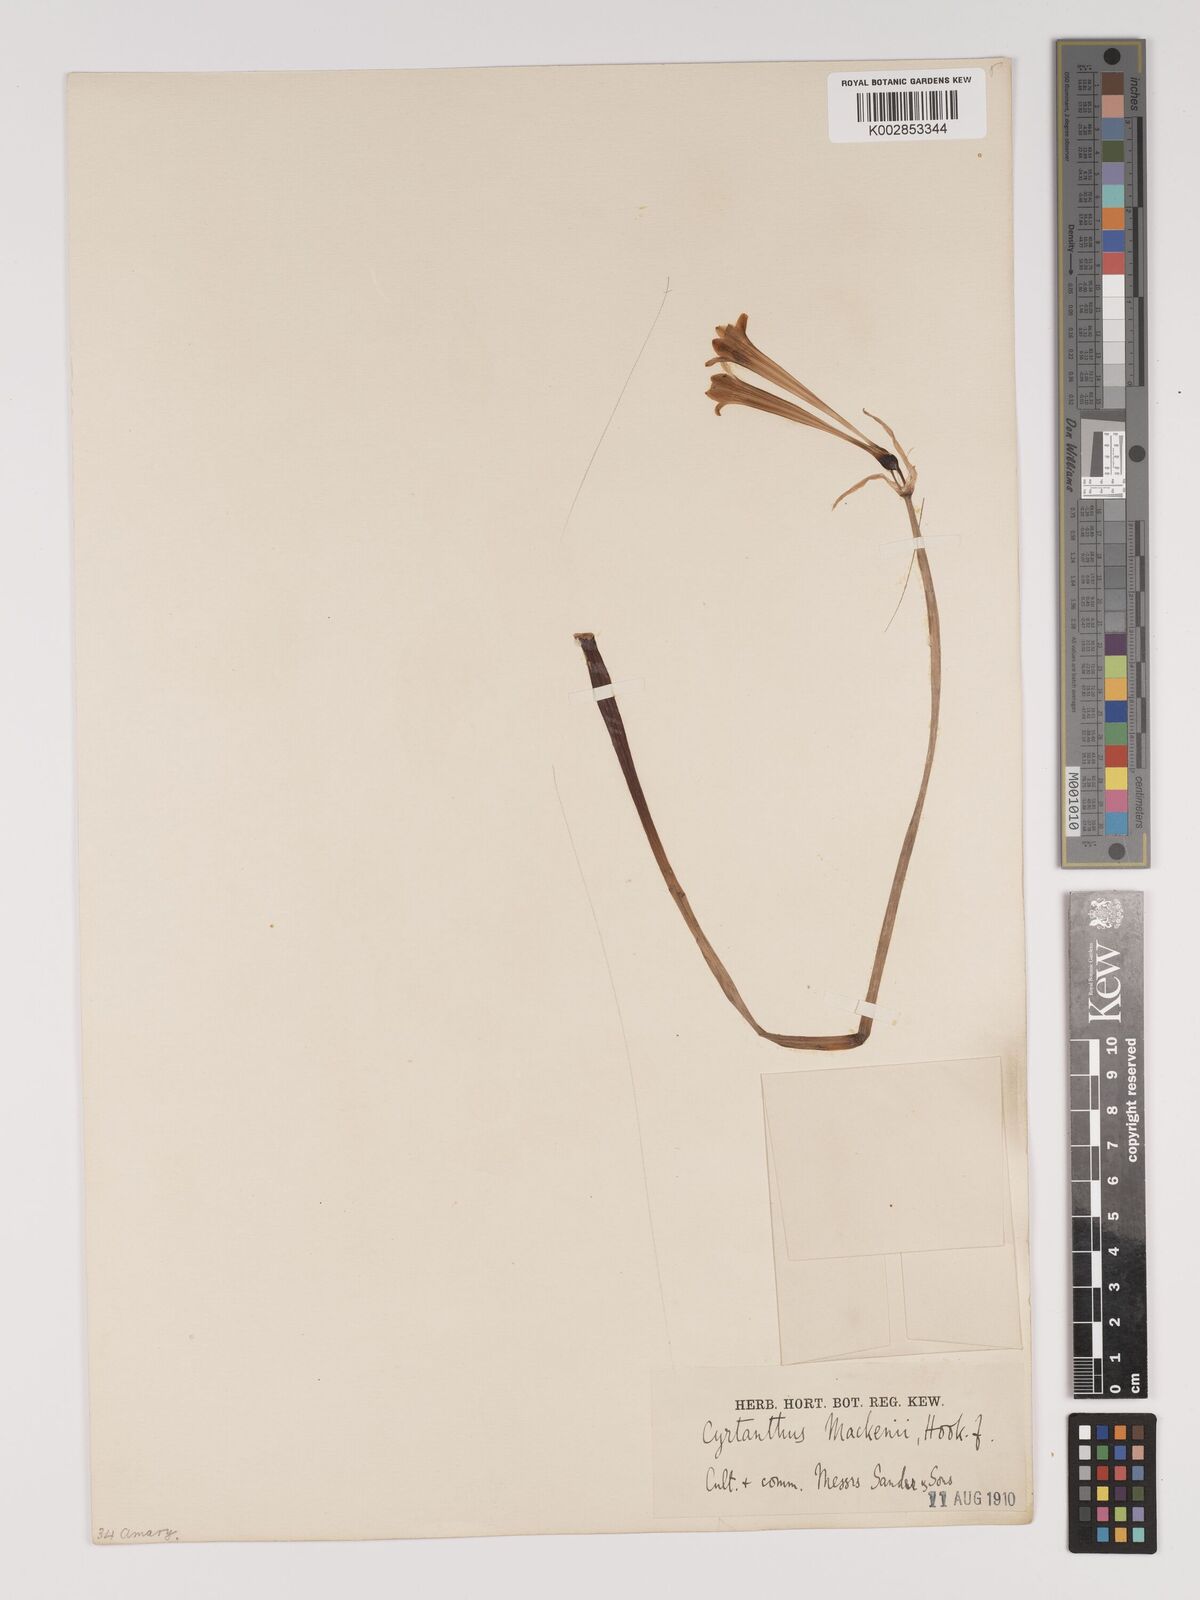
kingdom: Plantae
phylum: Tracheophyta
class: Liliopsida
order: Asparagales
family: Amaryllidaceae
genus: Cyrtanthus
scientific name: Cyrtanthus mackenii
